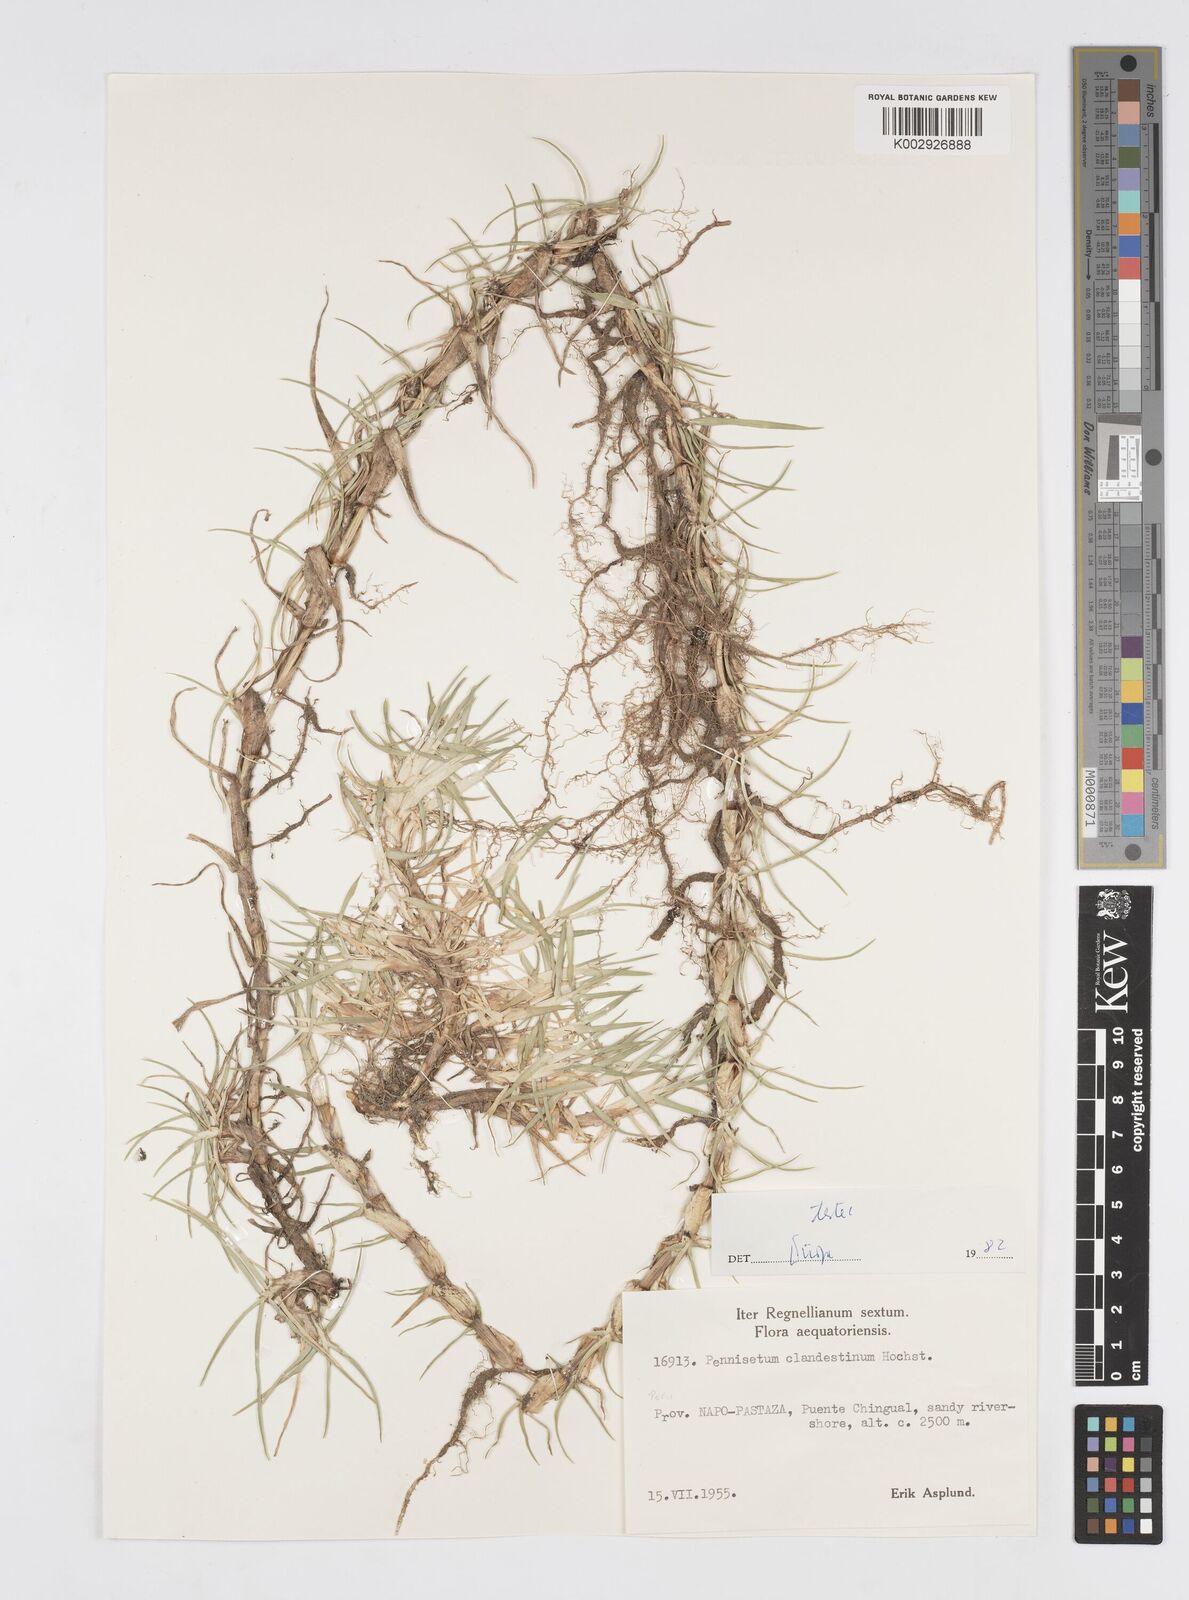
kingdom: Plantae
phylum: Tracheophyta
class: Liliopsida
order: Poales
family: Poaceae
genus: Cenchrus
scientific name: Cenchrus clandestinus
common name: Kikuyugrass
